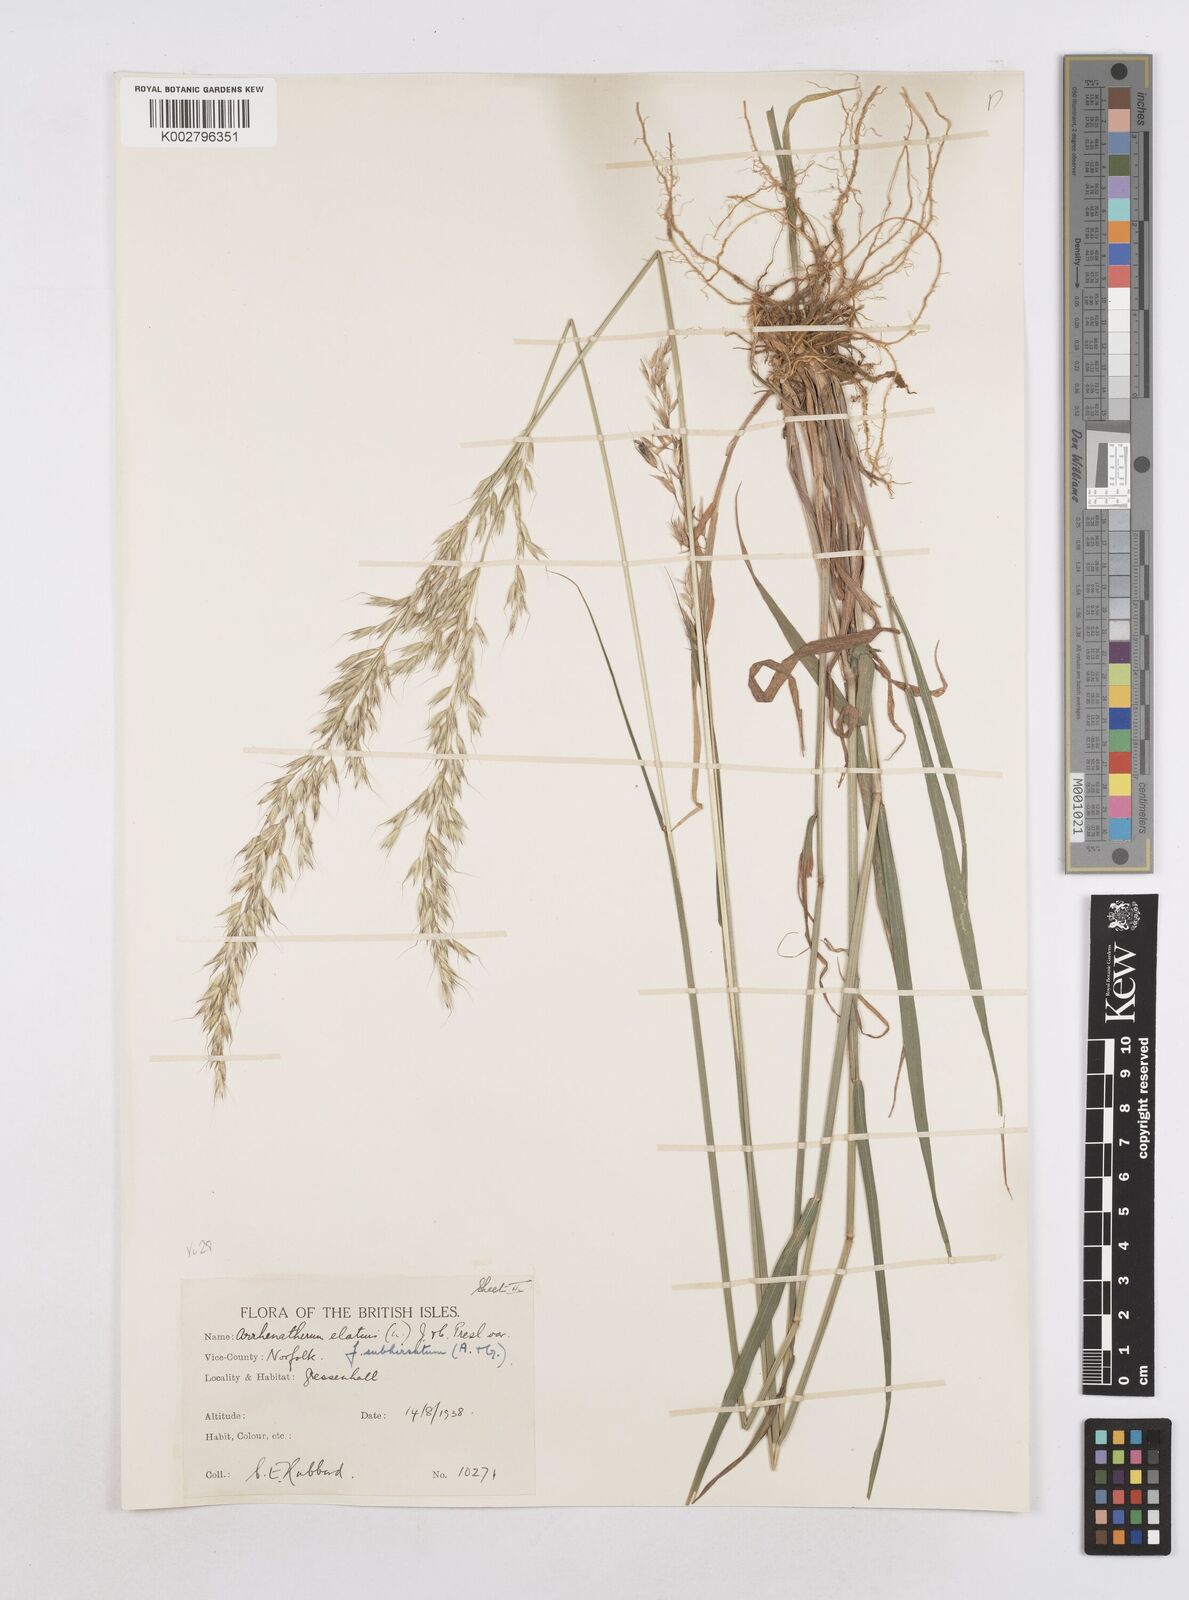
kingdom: Plantae
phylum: Tracheophyta
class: Liliopsida
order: Poales
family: Poaceae
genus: Arrhenatherum
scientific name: Arrhenatherum elatius
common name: Tall oatgrass
